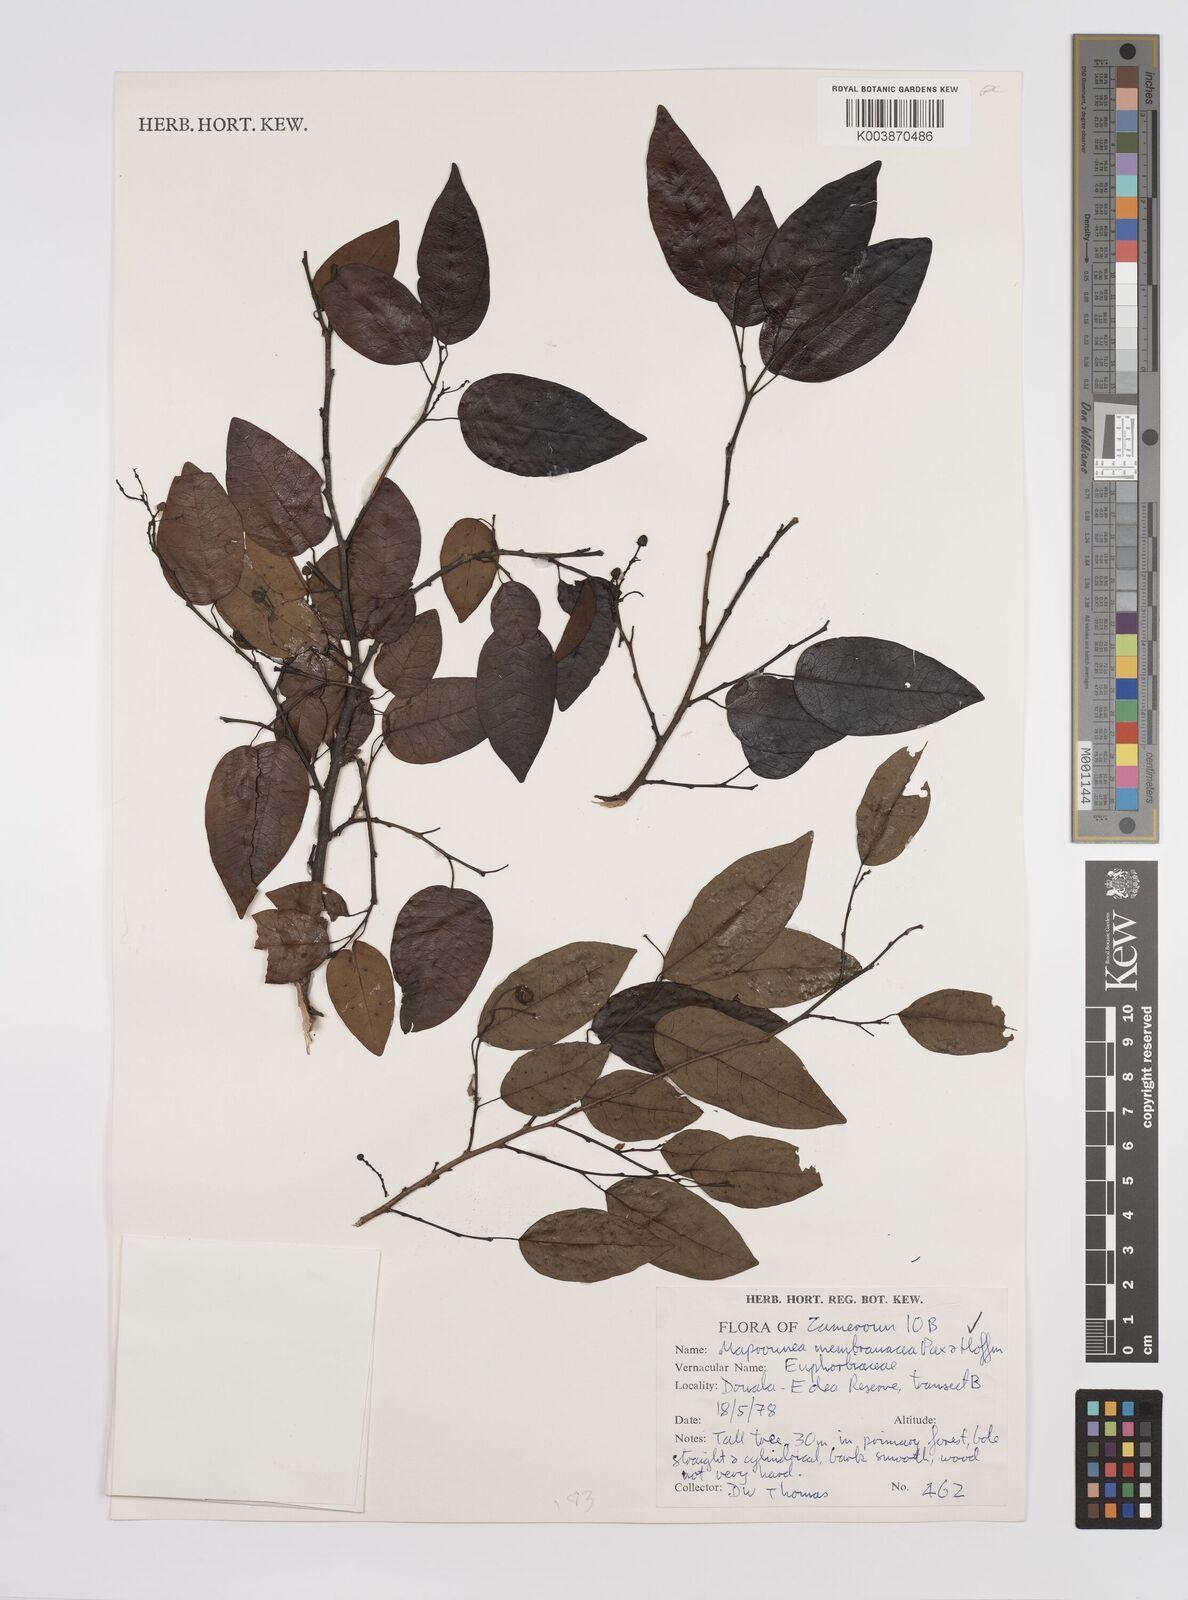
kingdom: Plantae
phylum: Tracheophyta
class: Magnoliopsida
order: Malpighiales
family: Euphorbiaceae
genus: Maprounea
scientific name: Maprounea membranacea
